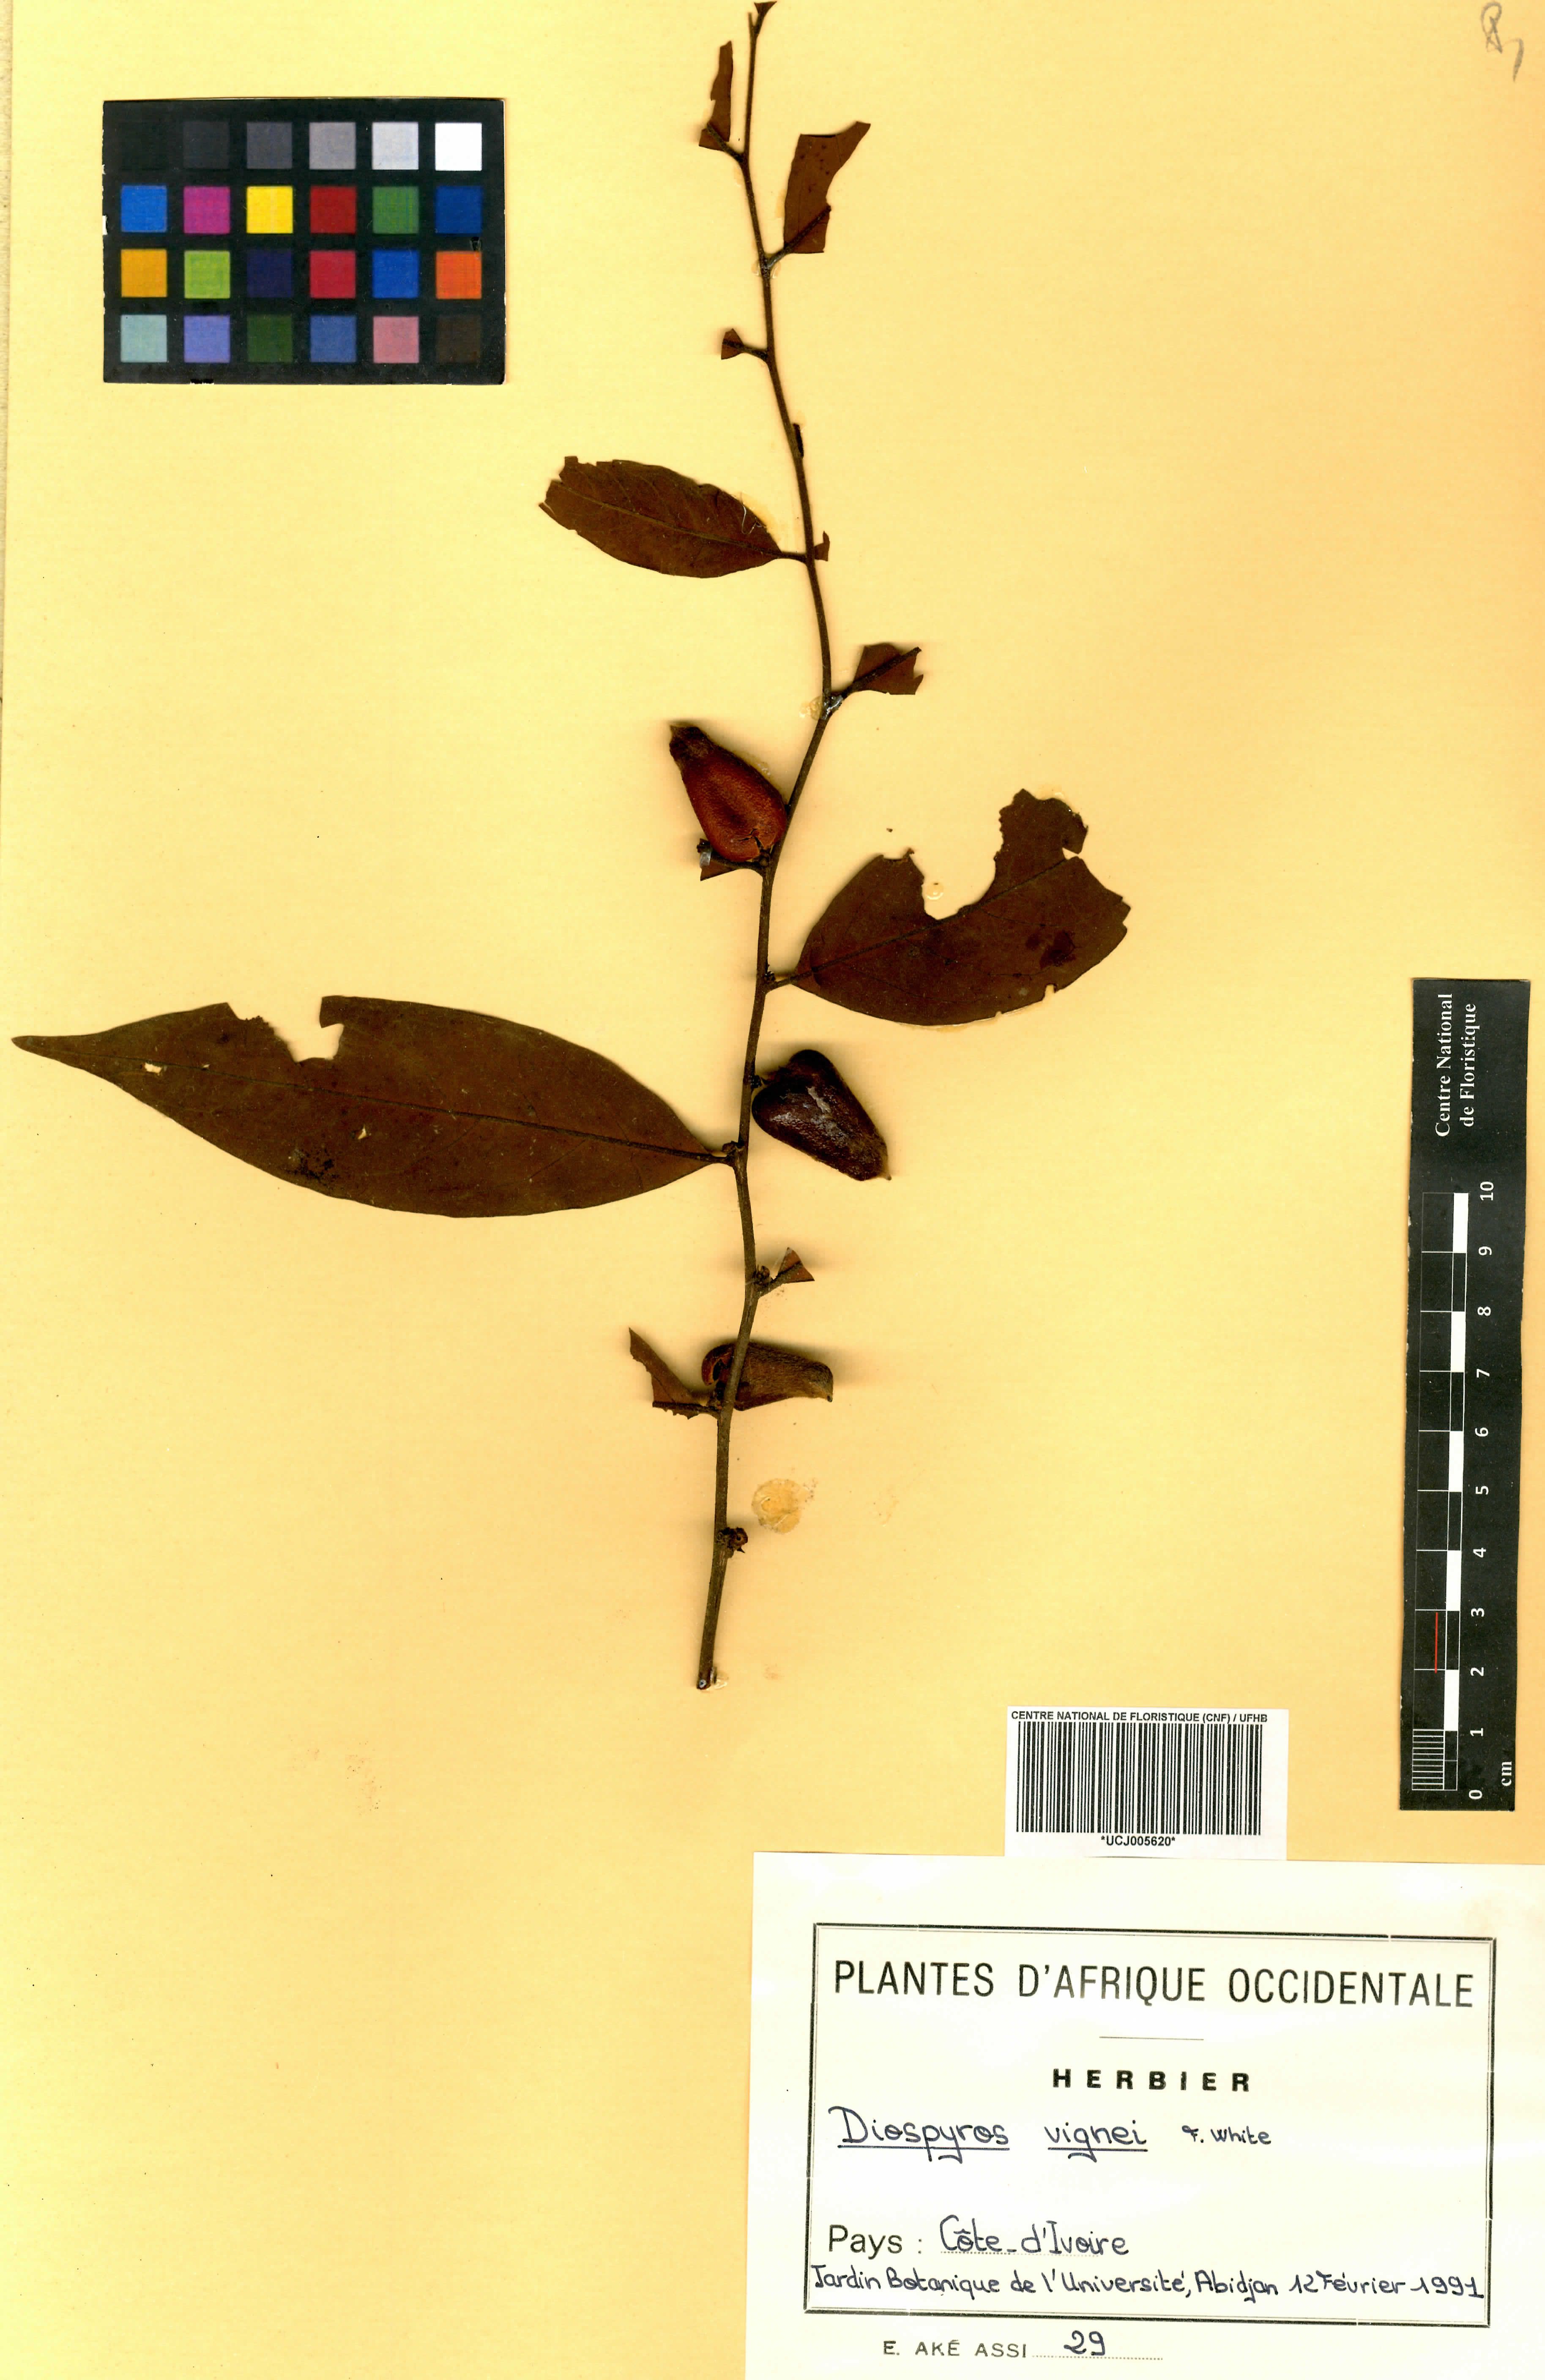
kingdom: Plantae
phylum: Tracheophyta
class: Magnoliopsida
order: Ericales
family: Ebenaceae
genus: Diospyros
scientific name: Diospyros vignei
